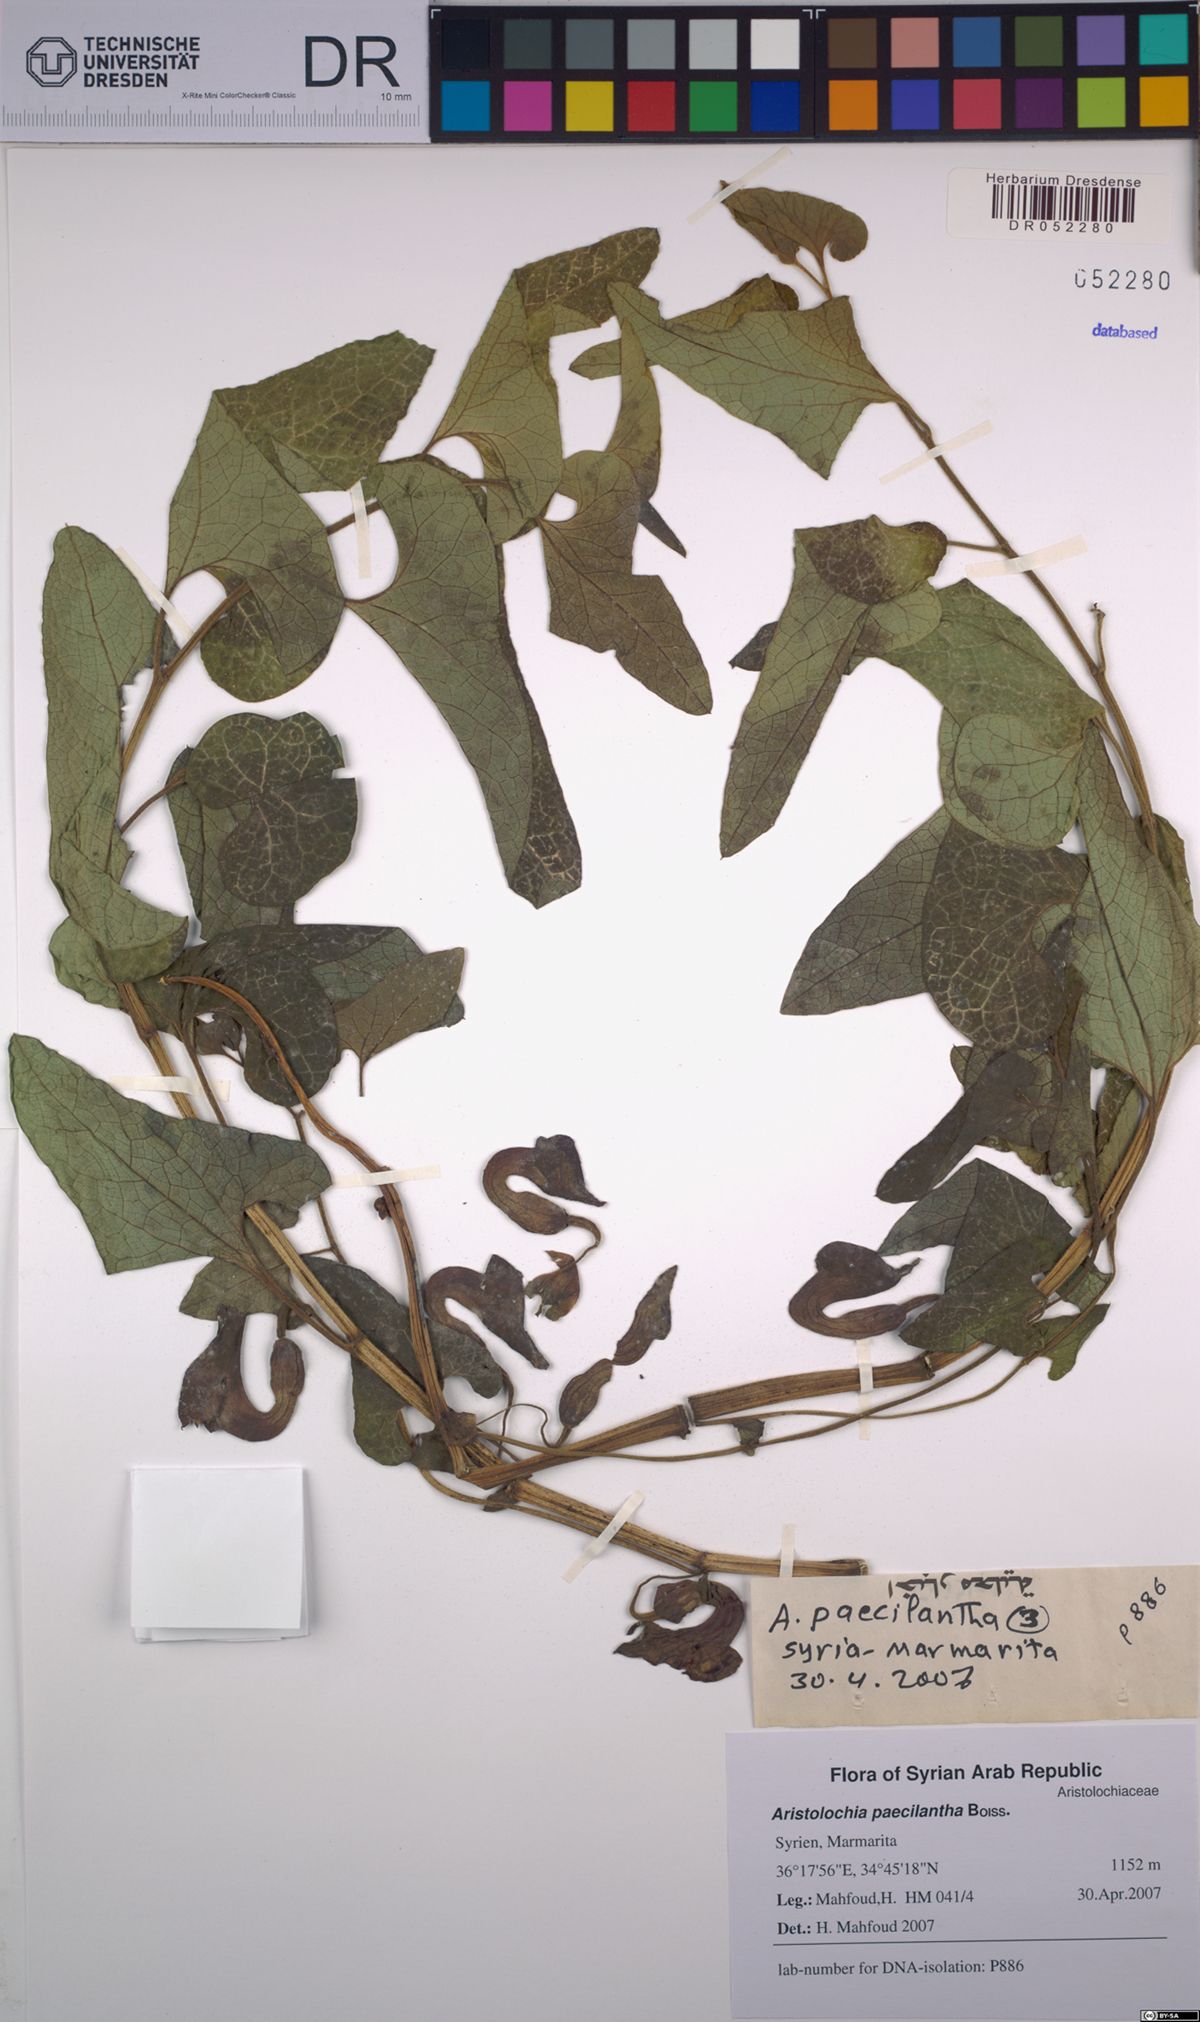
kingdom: Plantae
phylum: Tracheophyta
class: Magnoliopsida
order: Piperales
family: Aristolochiaceae
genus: Aristolochia
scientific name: Aristolochia paecilantha
